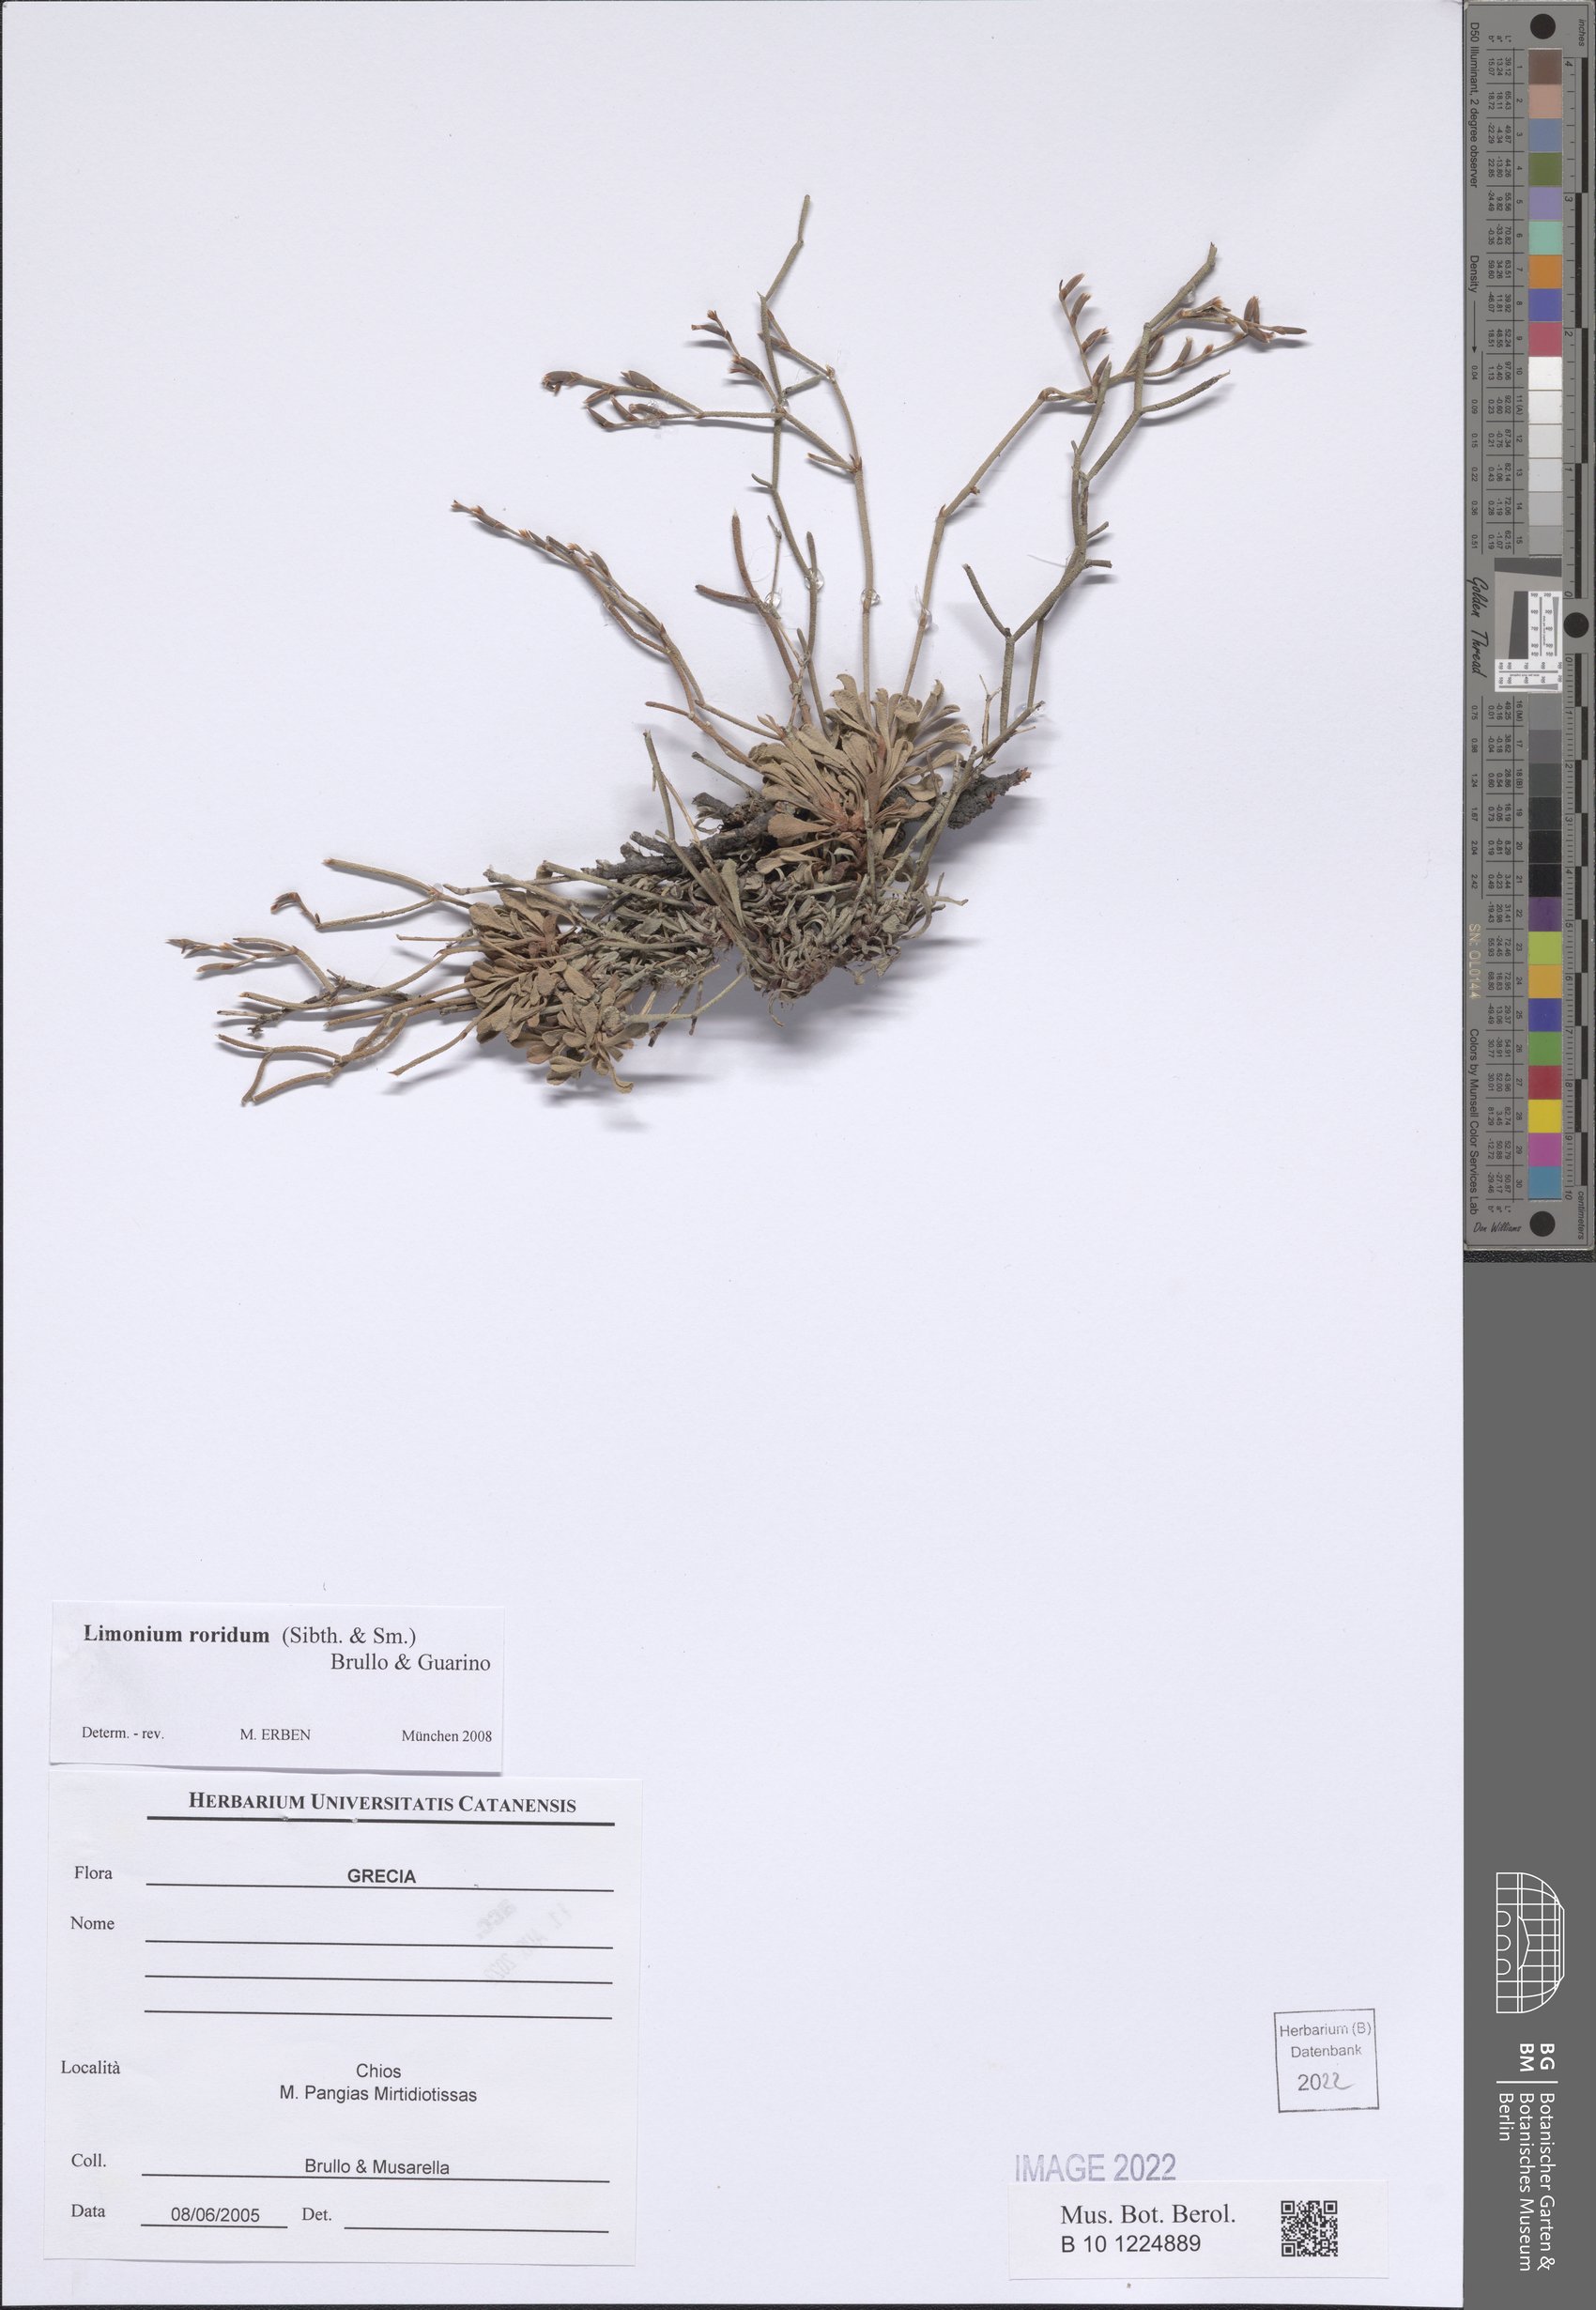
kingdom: Plantae
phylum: Tracheophyta
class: Magnoliopsida
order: Caryophyllales
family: Plumbaginaceae
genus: Limonium
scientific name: Limonium roridum
